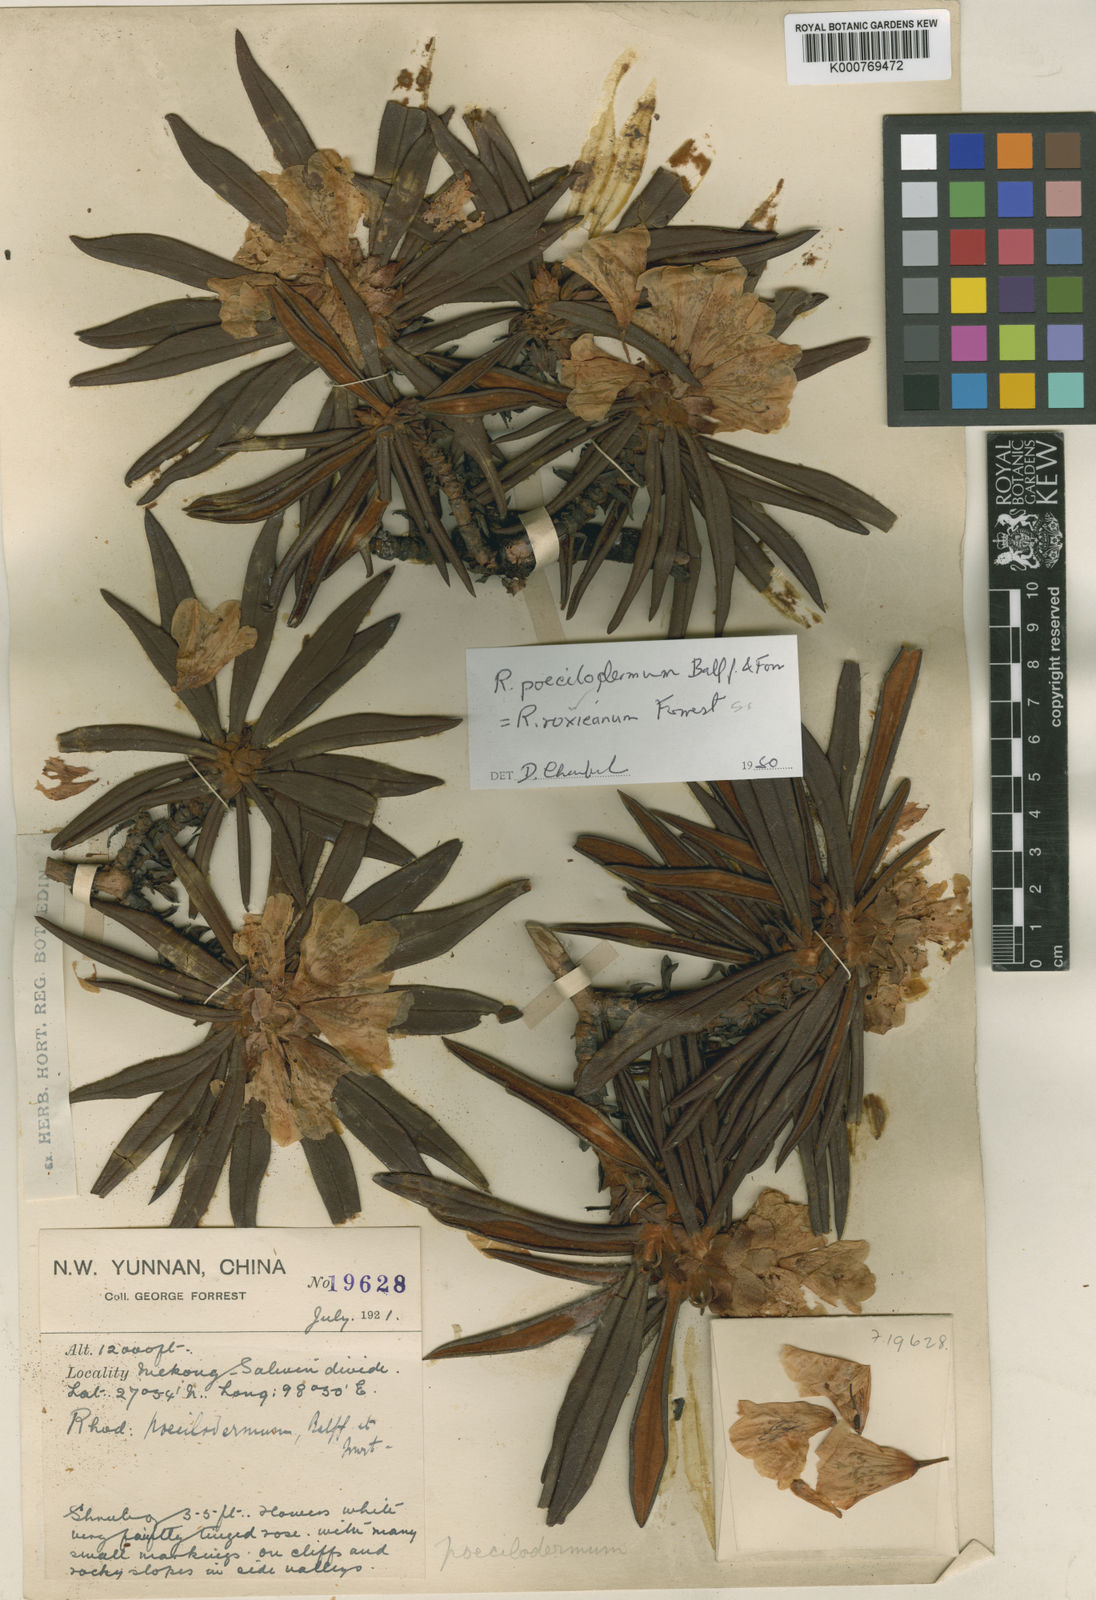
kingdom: Plantae
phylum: Tracheophyta
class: Magnoliopsida
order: Ericales
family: Ericaceae
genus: Rhododendron
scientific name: Rhododendron roxieanum
